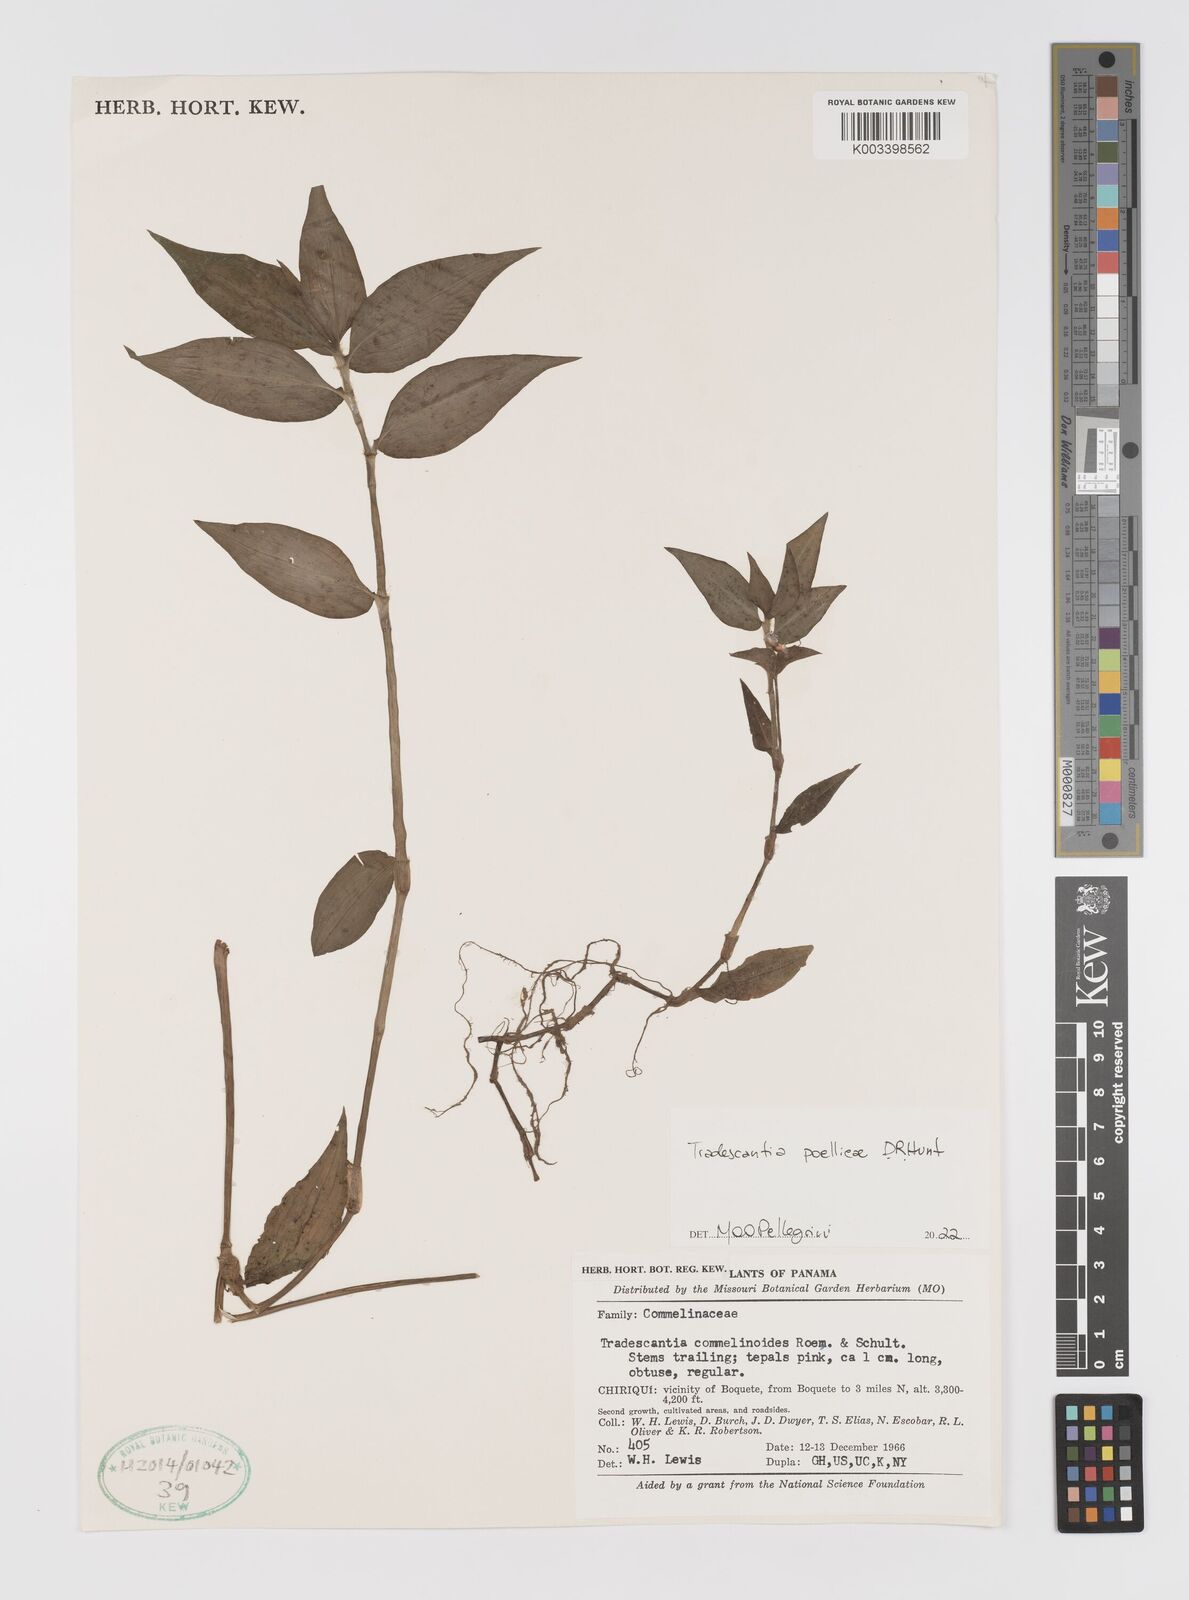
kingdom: Plantae
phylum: Tracheophyta
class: Liliopsida
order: Commelinales
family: Commelinaceae
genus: Tradescantia
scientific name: Tradescantia poelliae
